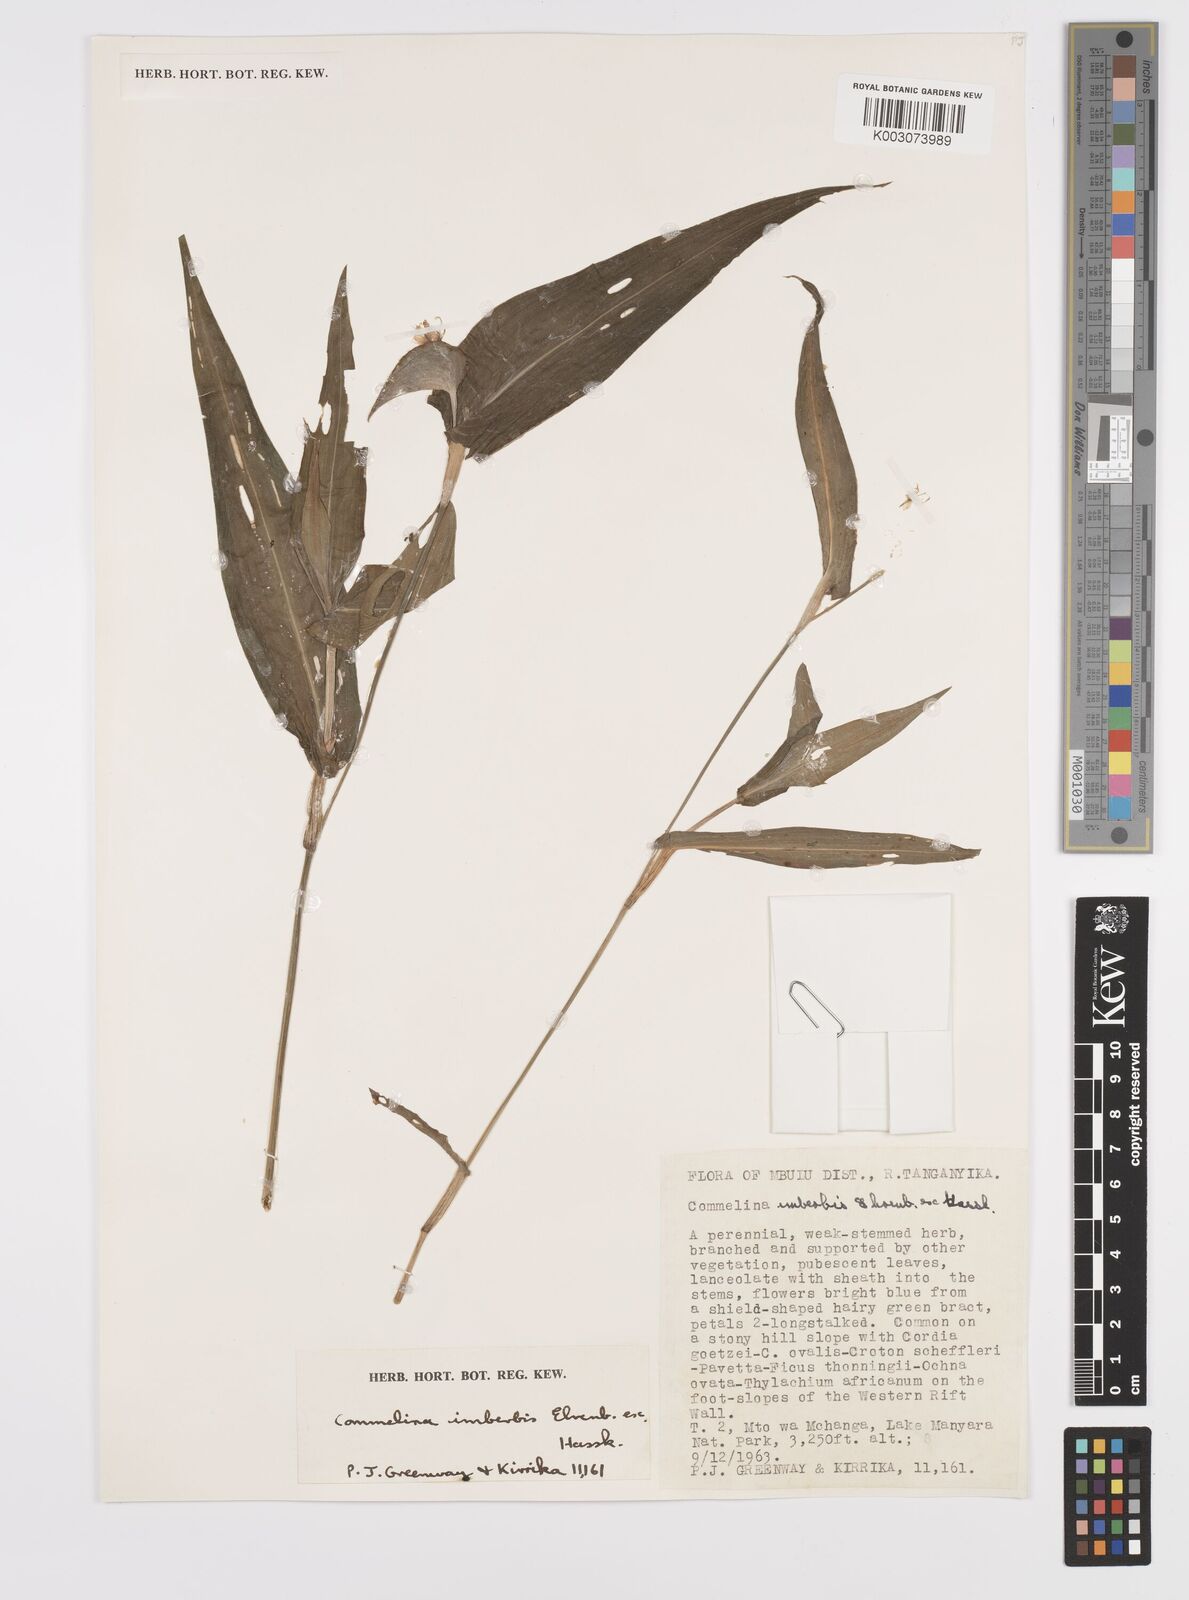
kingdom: Plantae
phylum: Tracheophyta
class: Liliopsida
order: Commelinales
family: Commelinaceae
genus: Commelina
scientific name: Commelina imberbis
